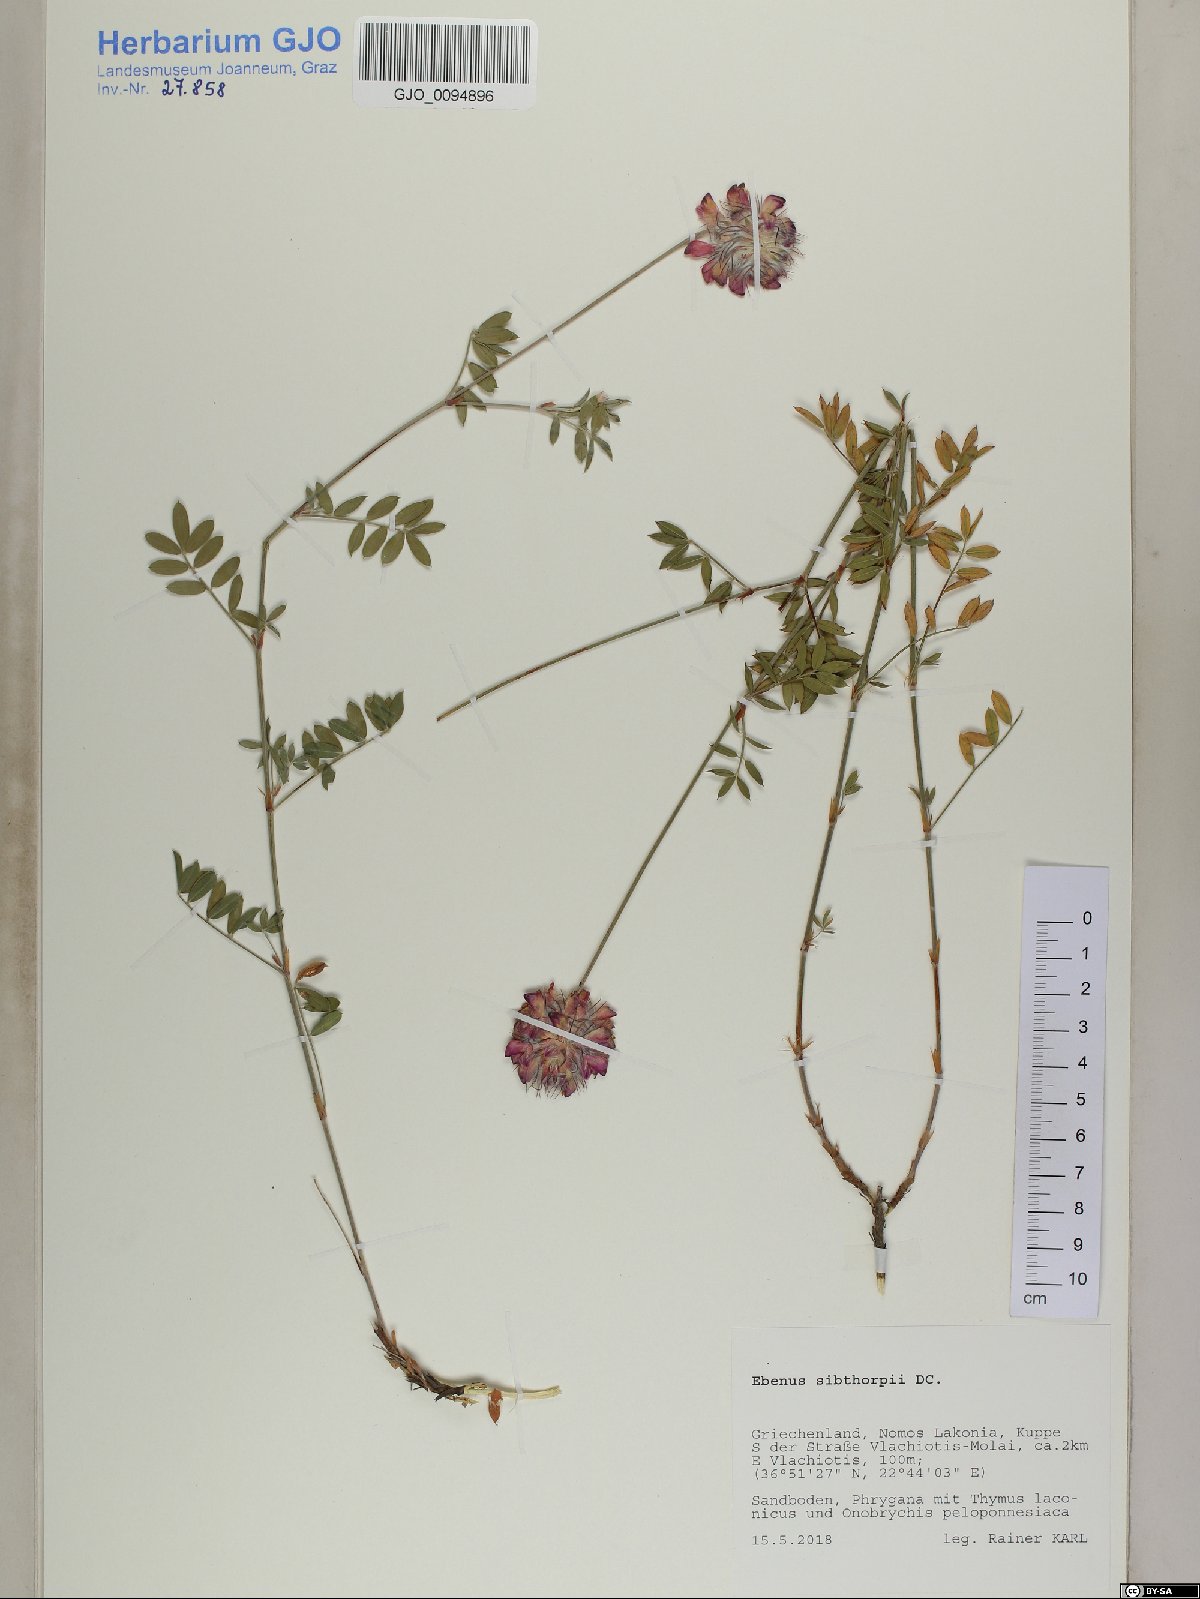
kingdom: Plantae
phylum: Tracheophyta
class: Magnoliopsida
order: Fabales
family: Fabaceae
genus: Ebenus
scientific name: Ebenus sibthorpii
